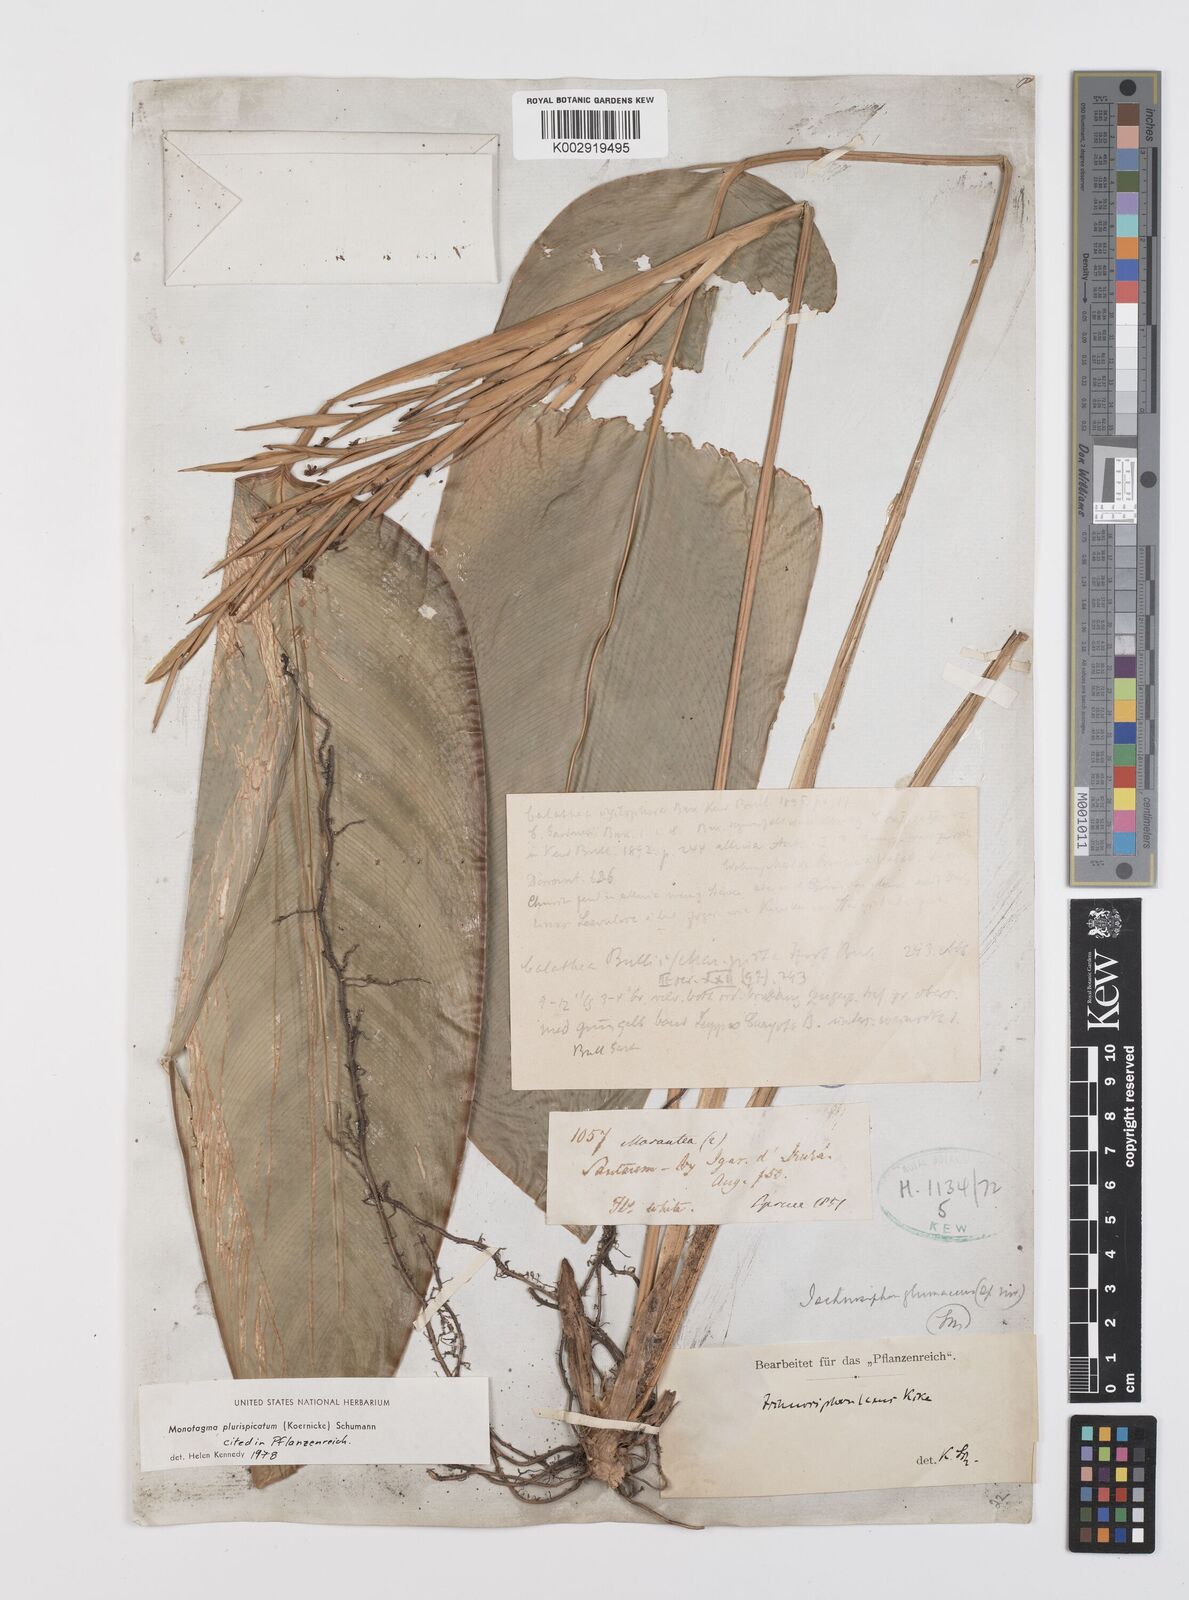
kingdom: Plantae
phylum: Tracheophyta
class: Liliopsida
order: Zingiberales
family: Marantaceae
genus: Monotagma
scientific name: Monotagma plurispicatum
